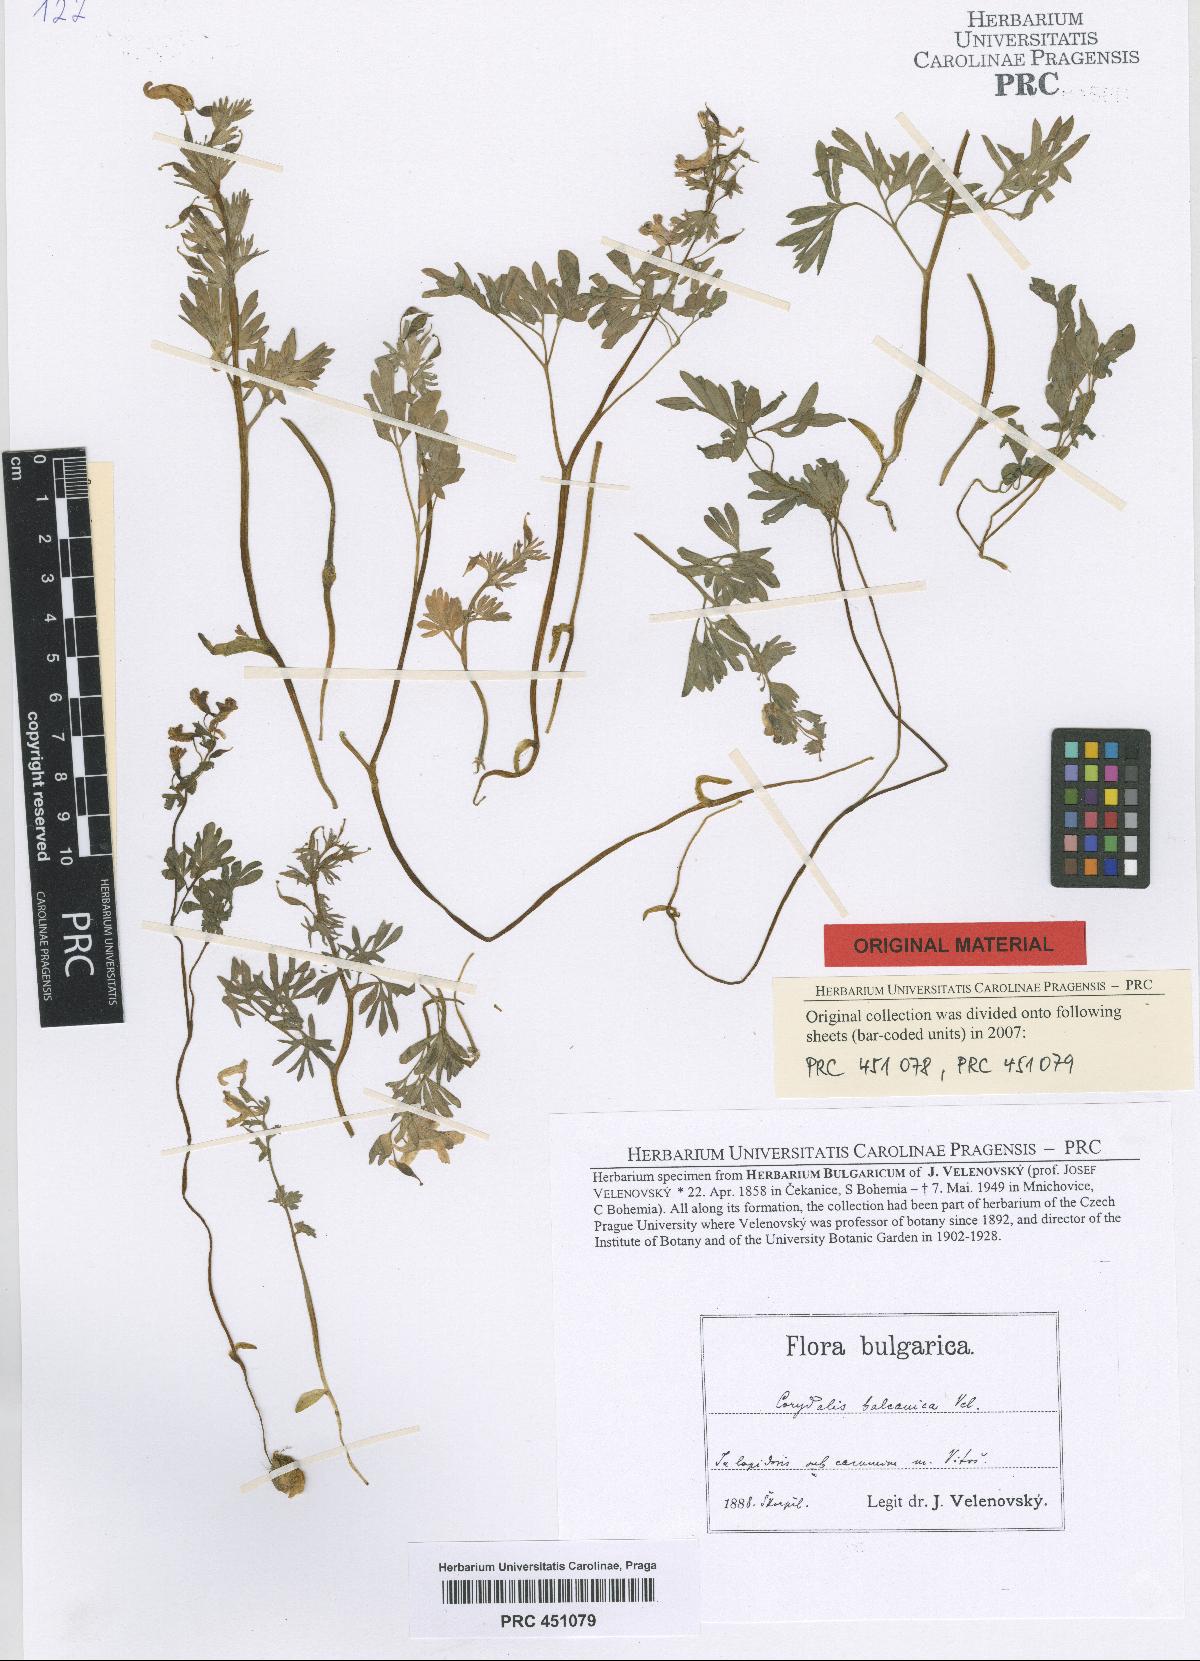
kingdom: Plantae
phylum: Tracheophyta
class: Magnoliopsida
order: Ranunculales
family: Papaveraceae
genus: Corydalis
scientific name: Corydalis solida
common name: Bird-in-a-bush
